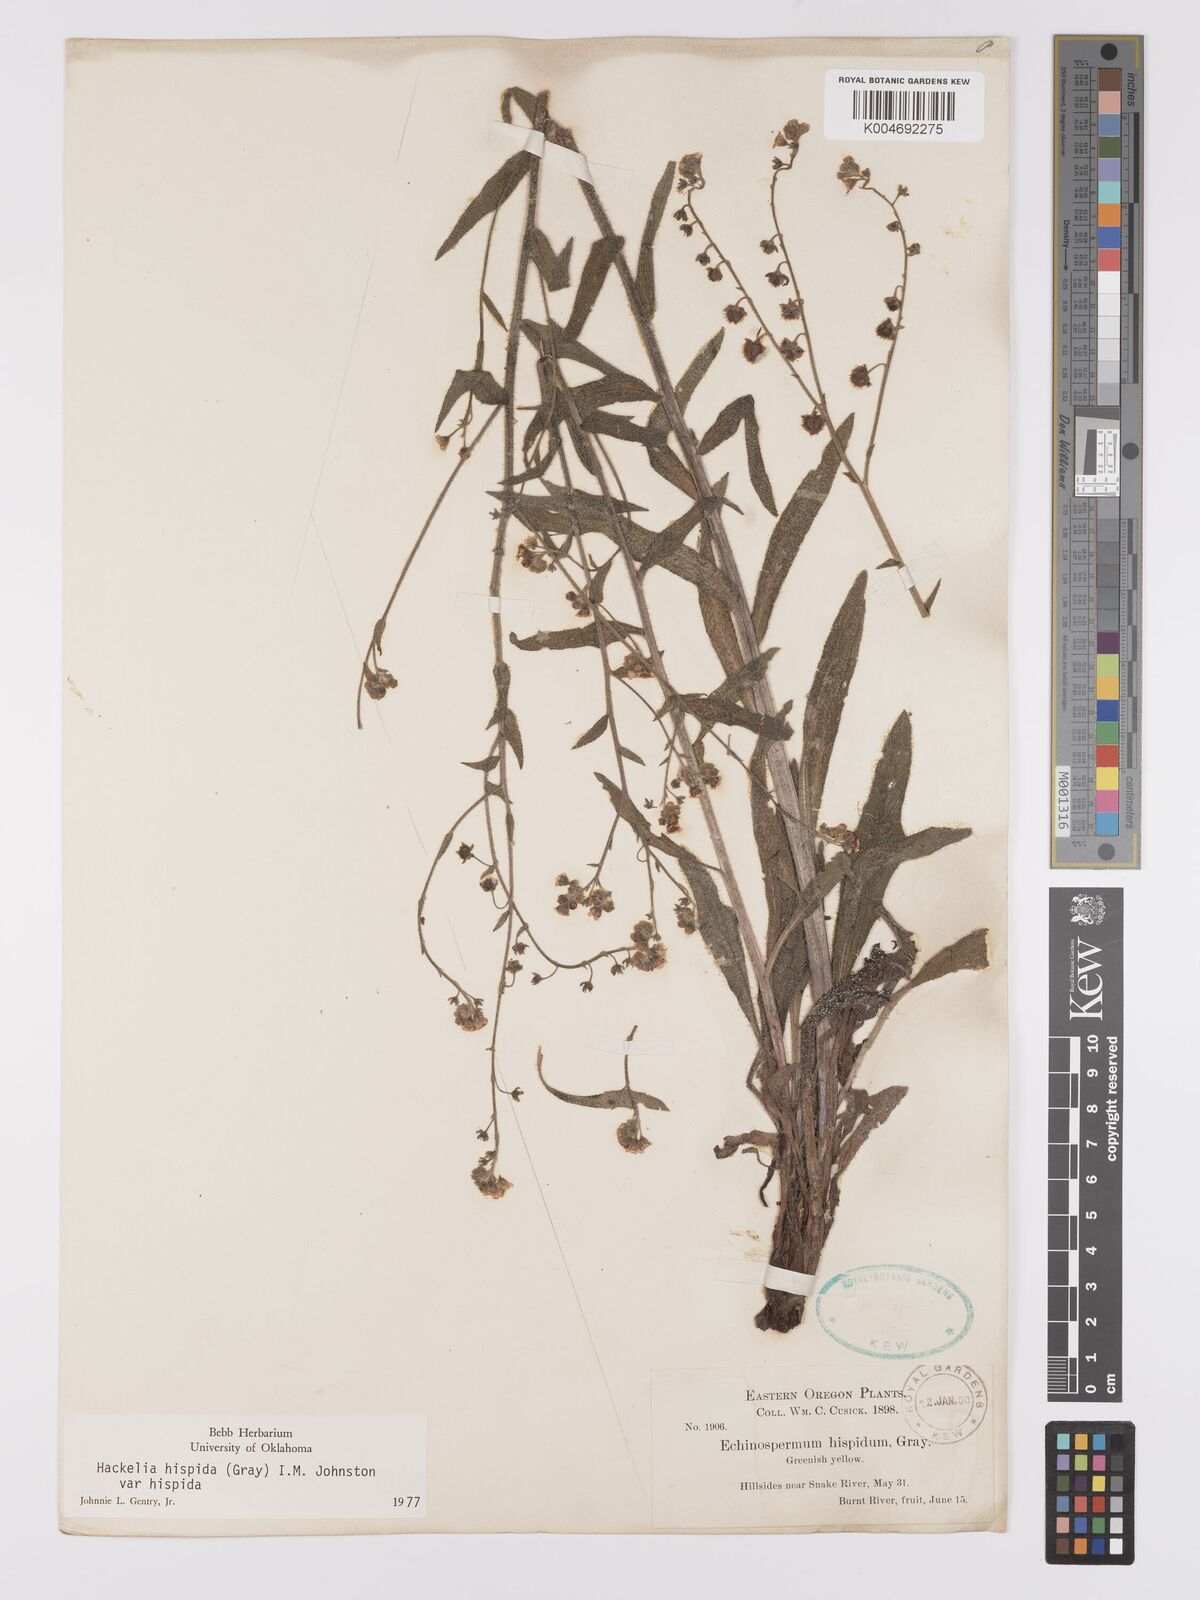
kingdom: Plantae
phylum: Tracheophyta
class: Magnoliopsida
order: Boraginales
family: Boraginaceae
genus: Hackelia
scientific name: Hackelia hispida
